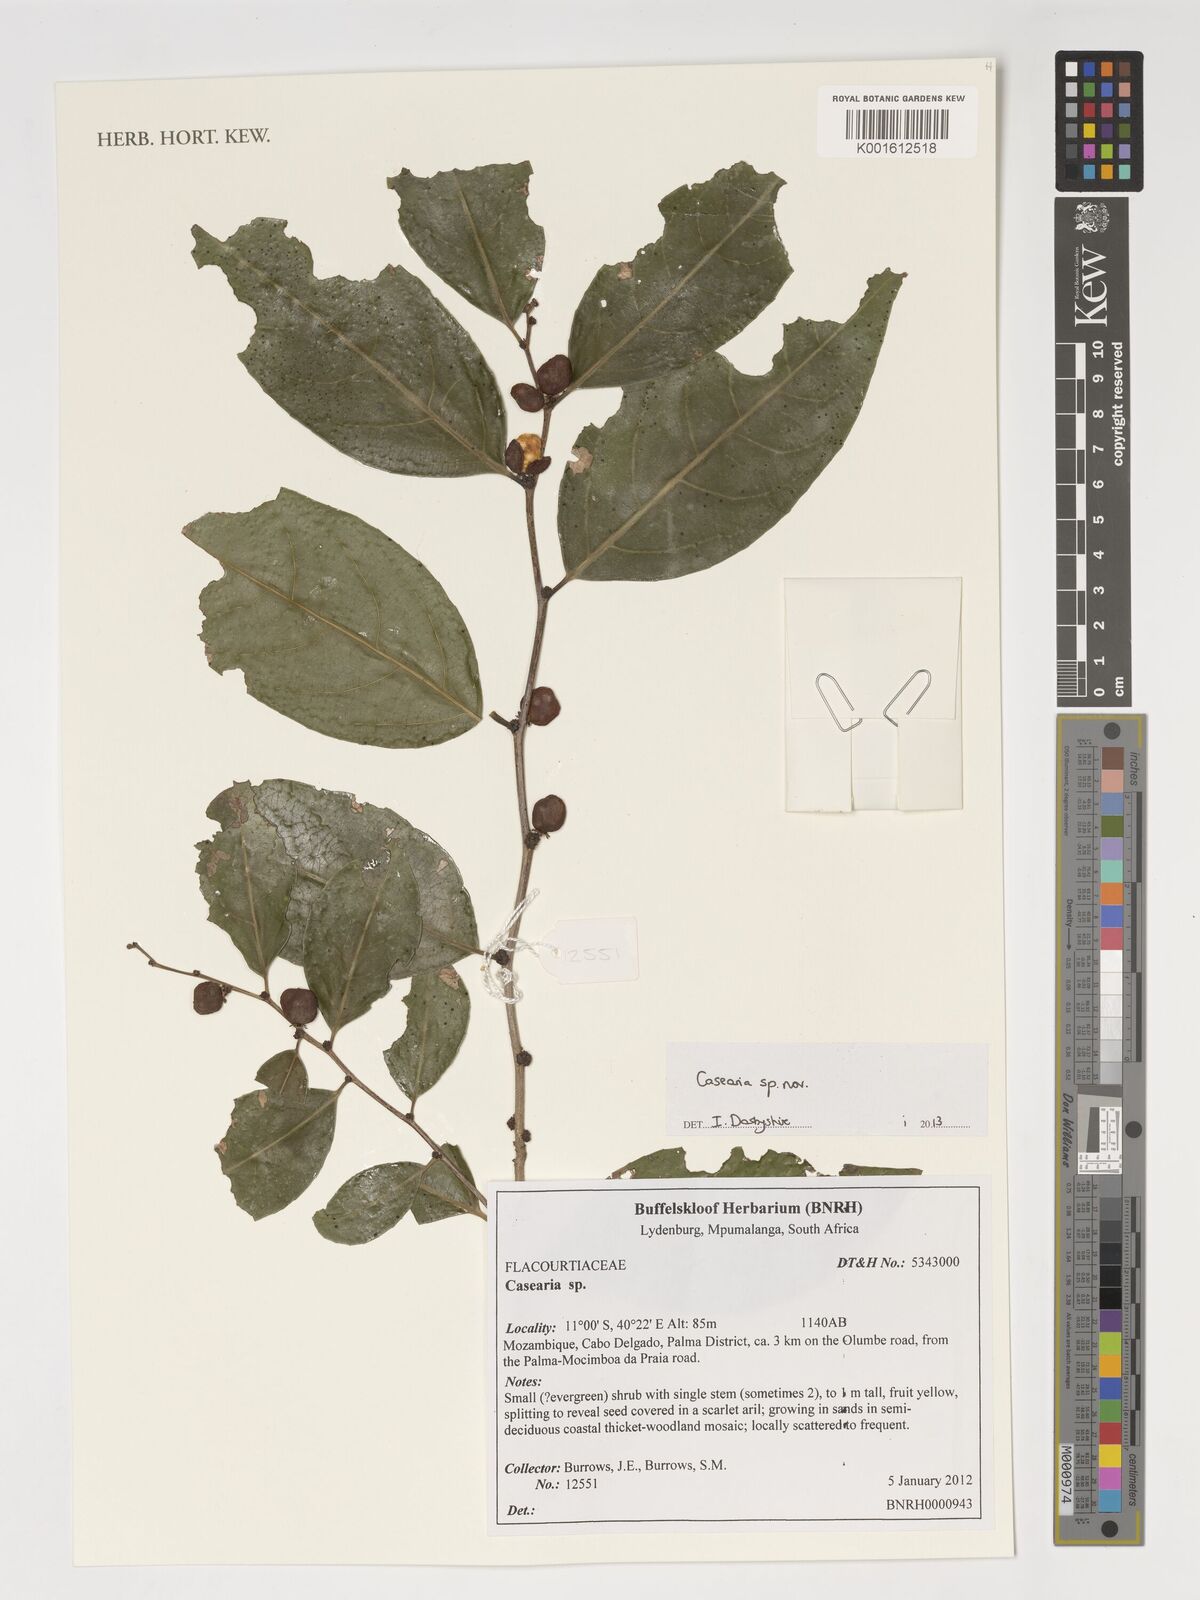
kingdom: Plantae
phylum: Tracheophyta
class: Magnoliopsida
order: Malpighiales
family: Salicaceae
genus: Casearia
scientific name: Casearia
